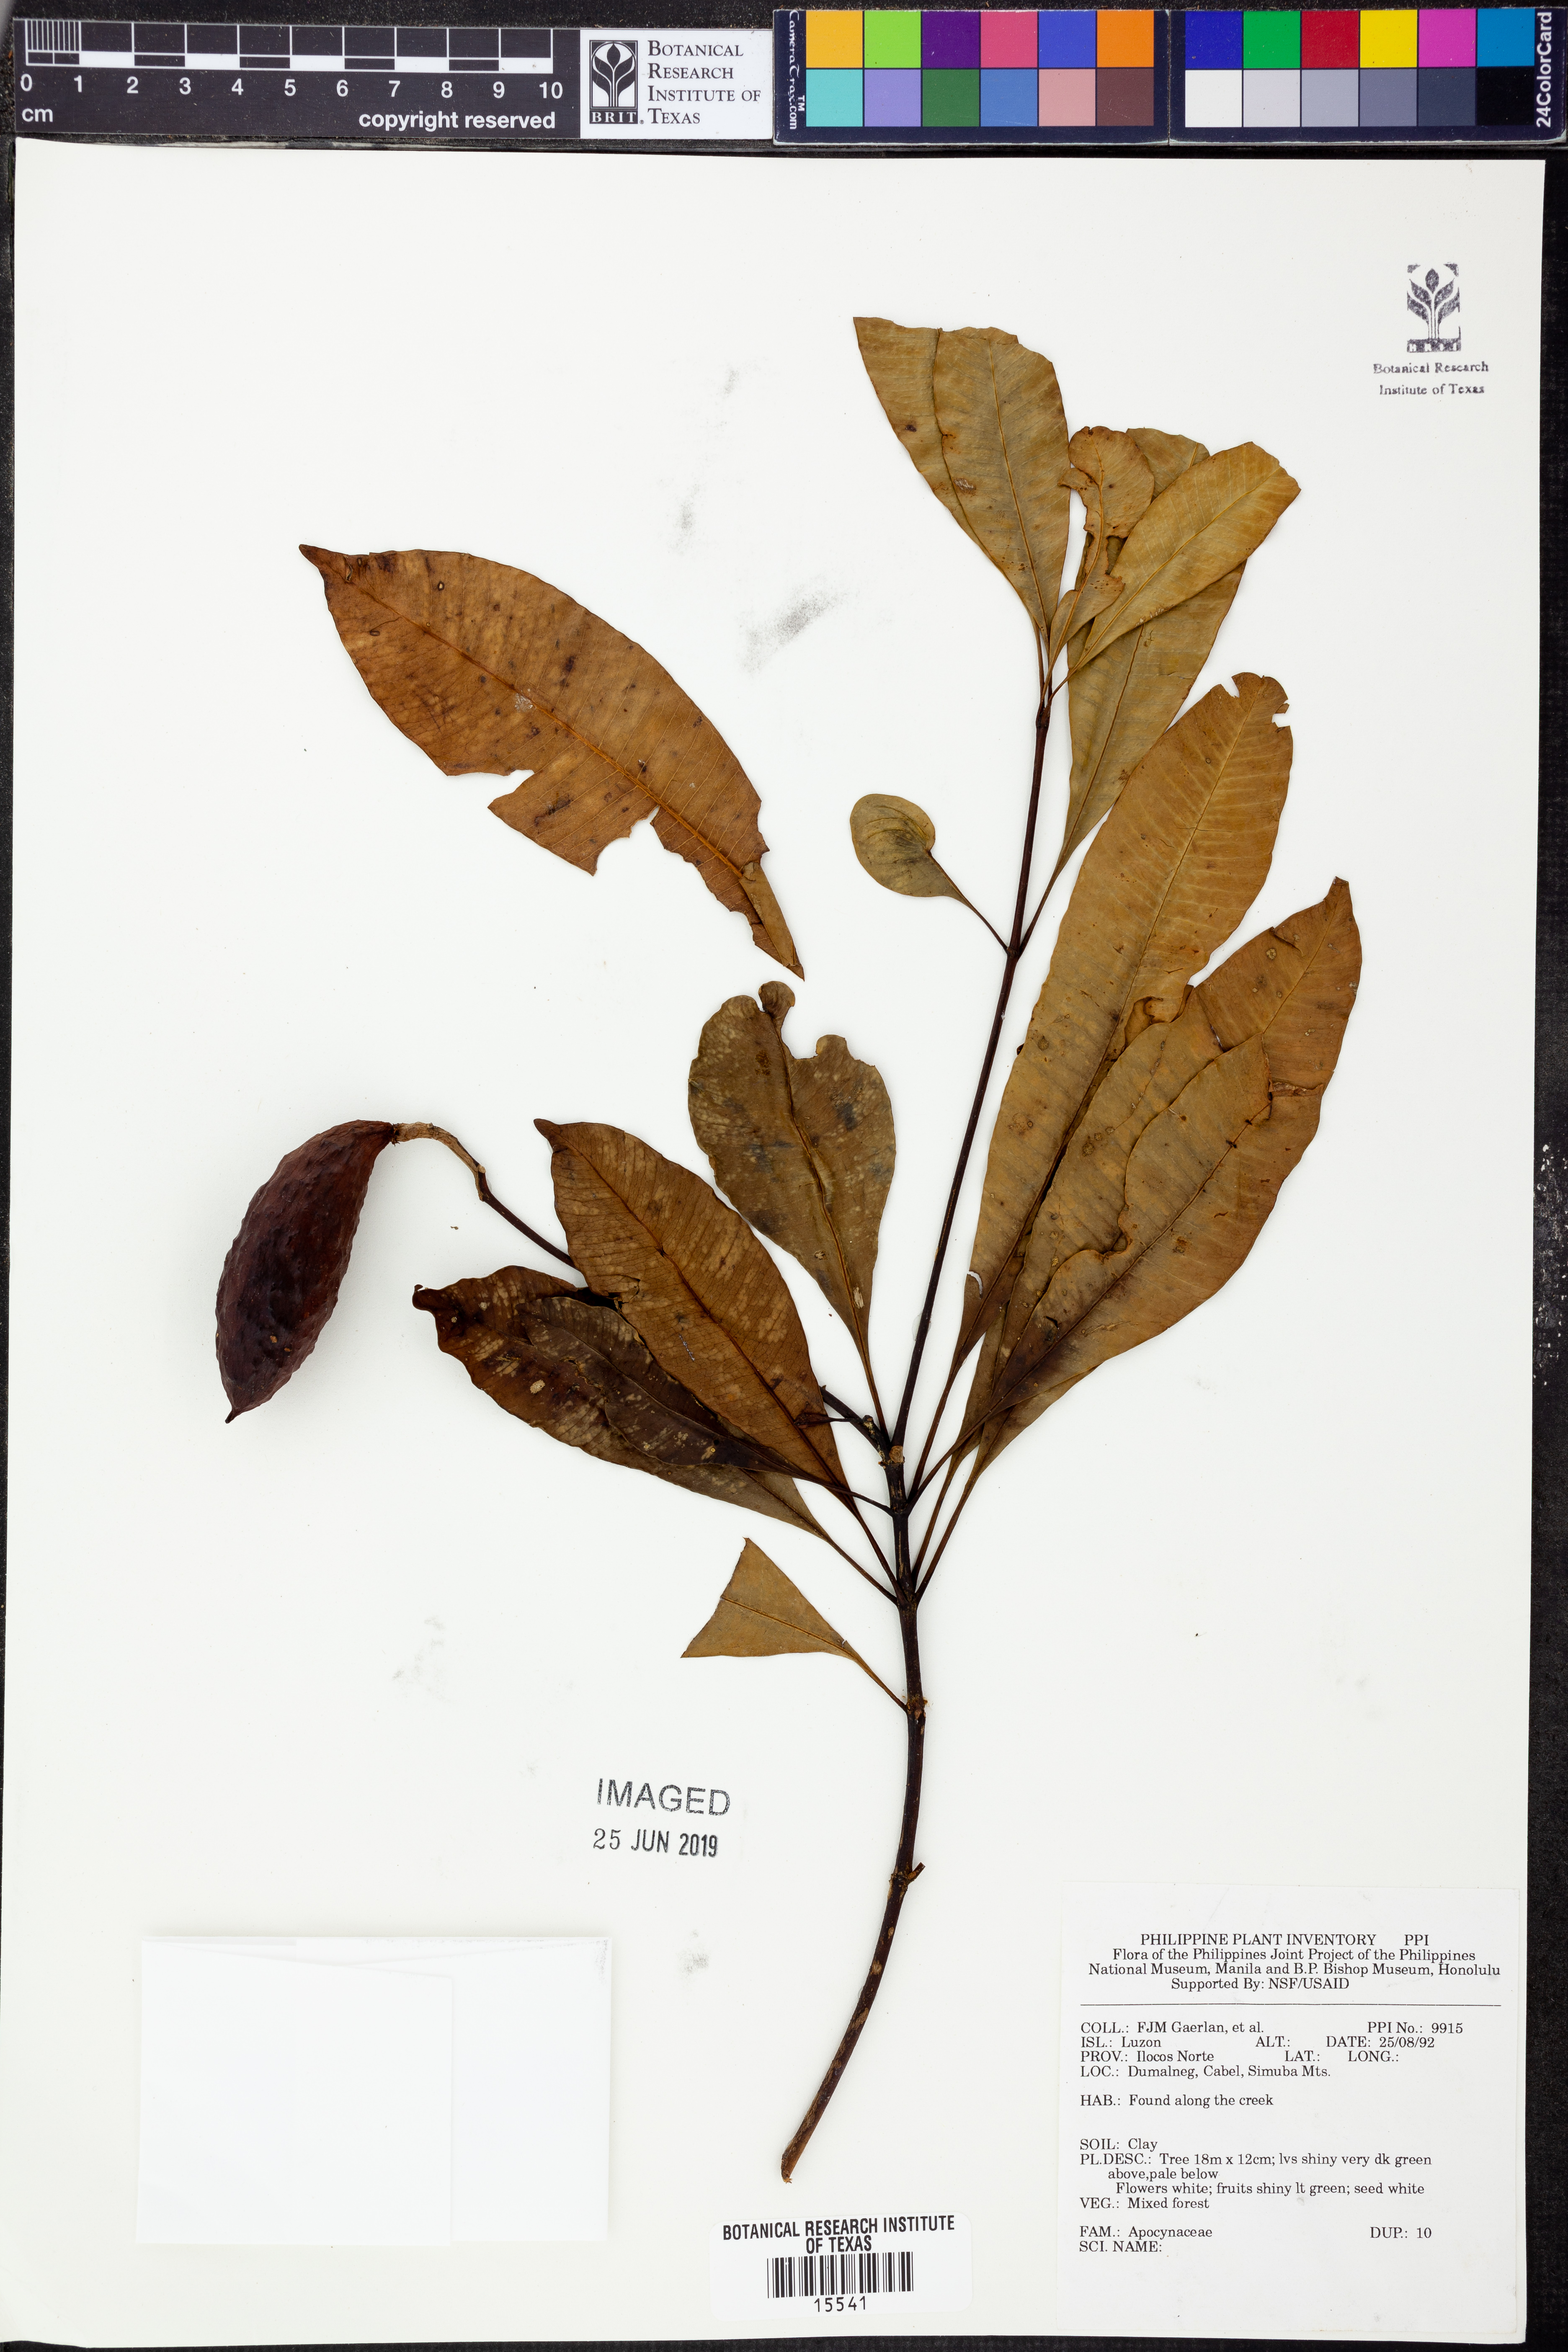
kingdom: Plantae
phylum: Tracheophyta
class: Magnoliopsida
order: Gentianales
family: Apocynaceae
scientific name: Apocynaceae
